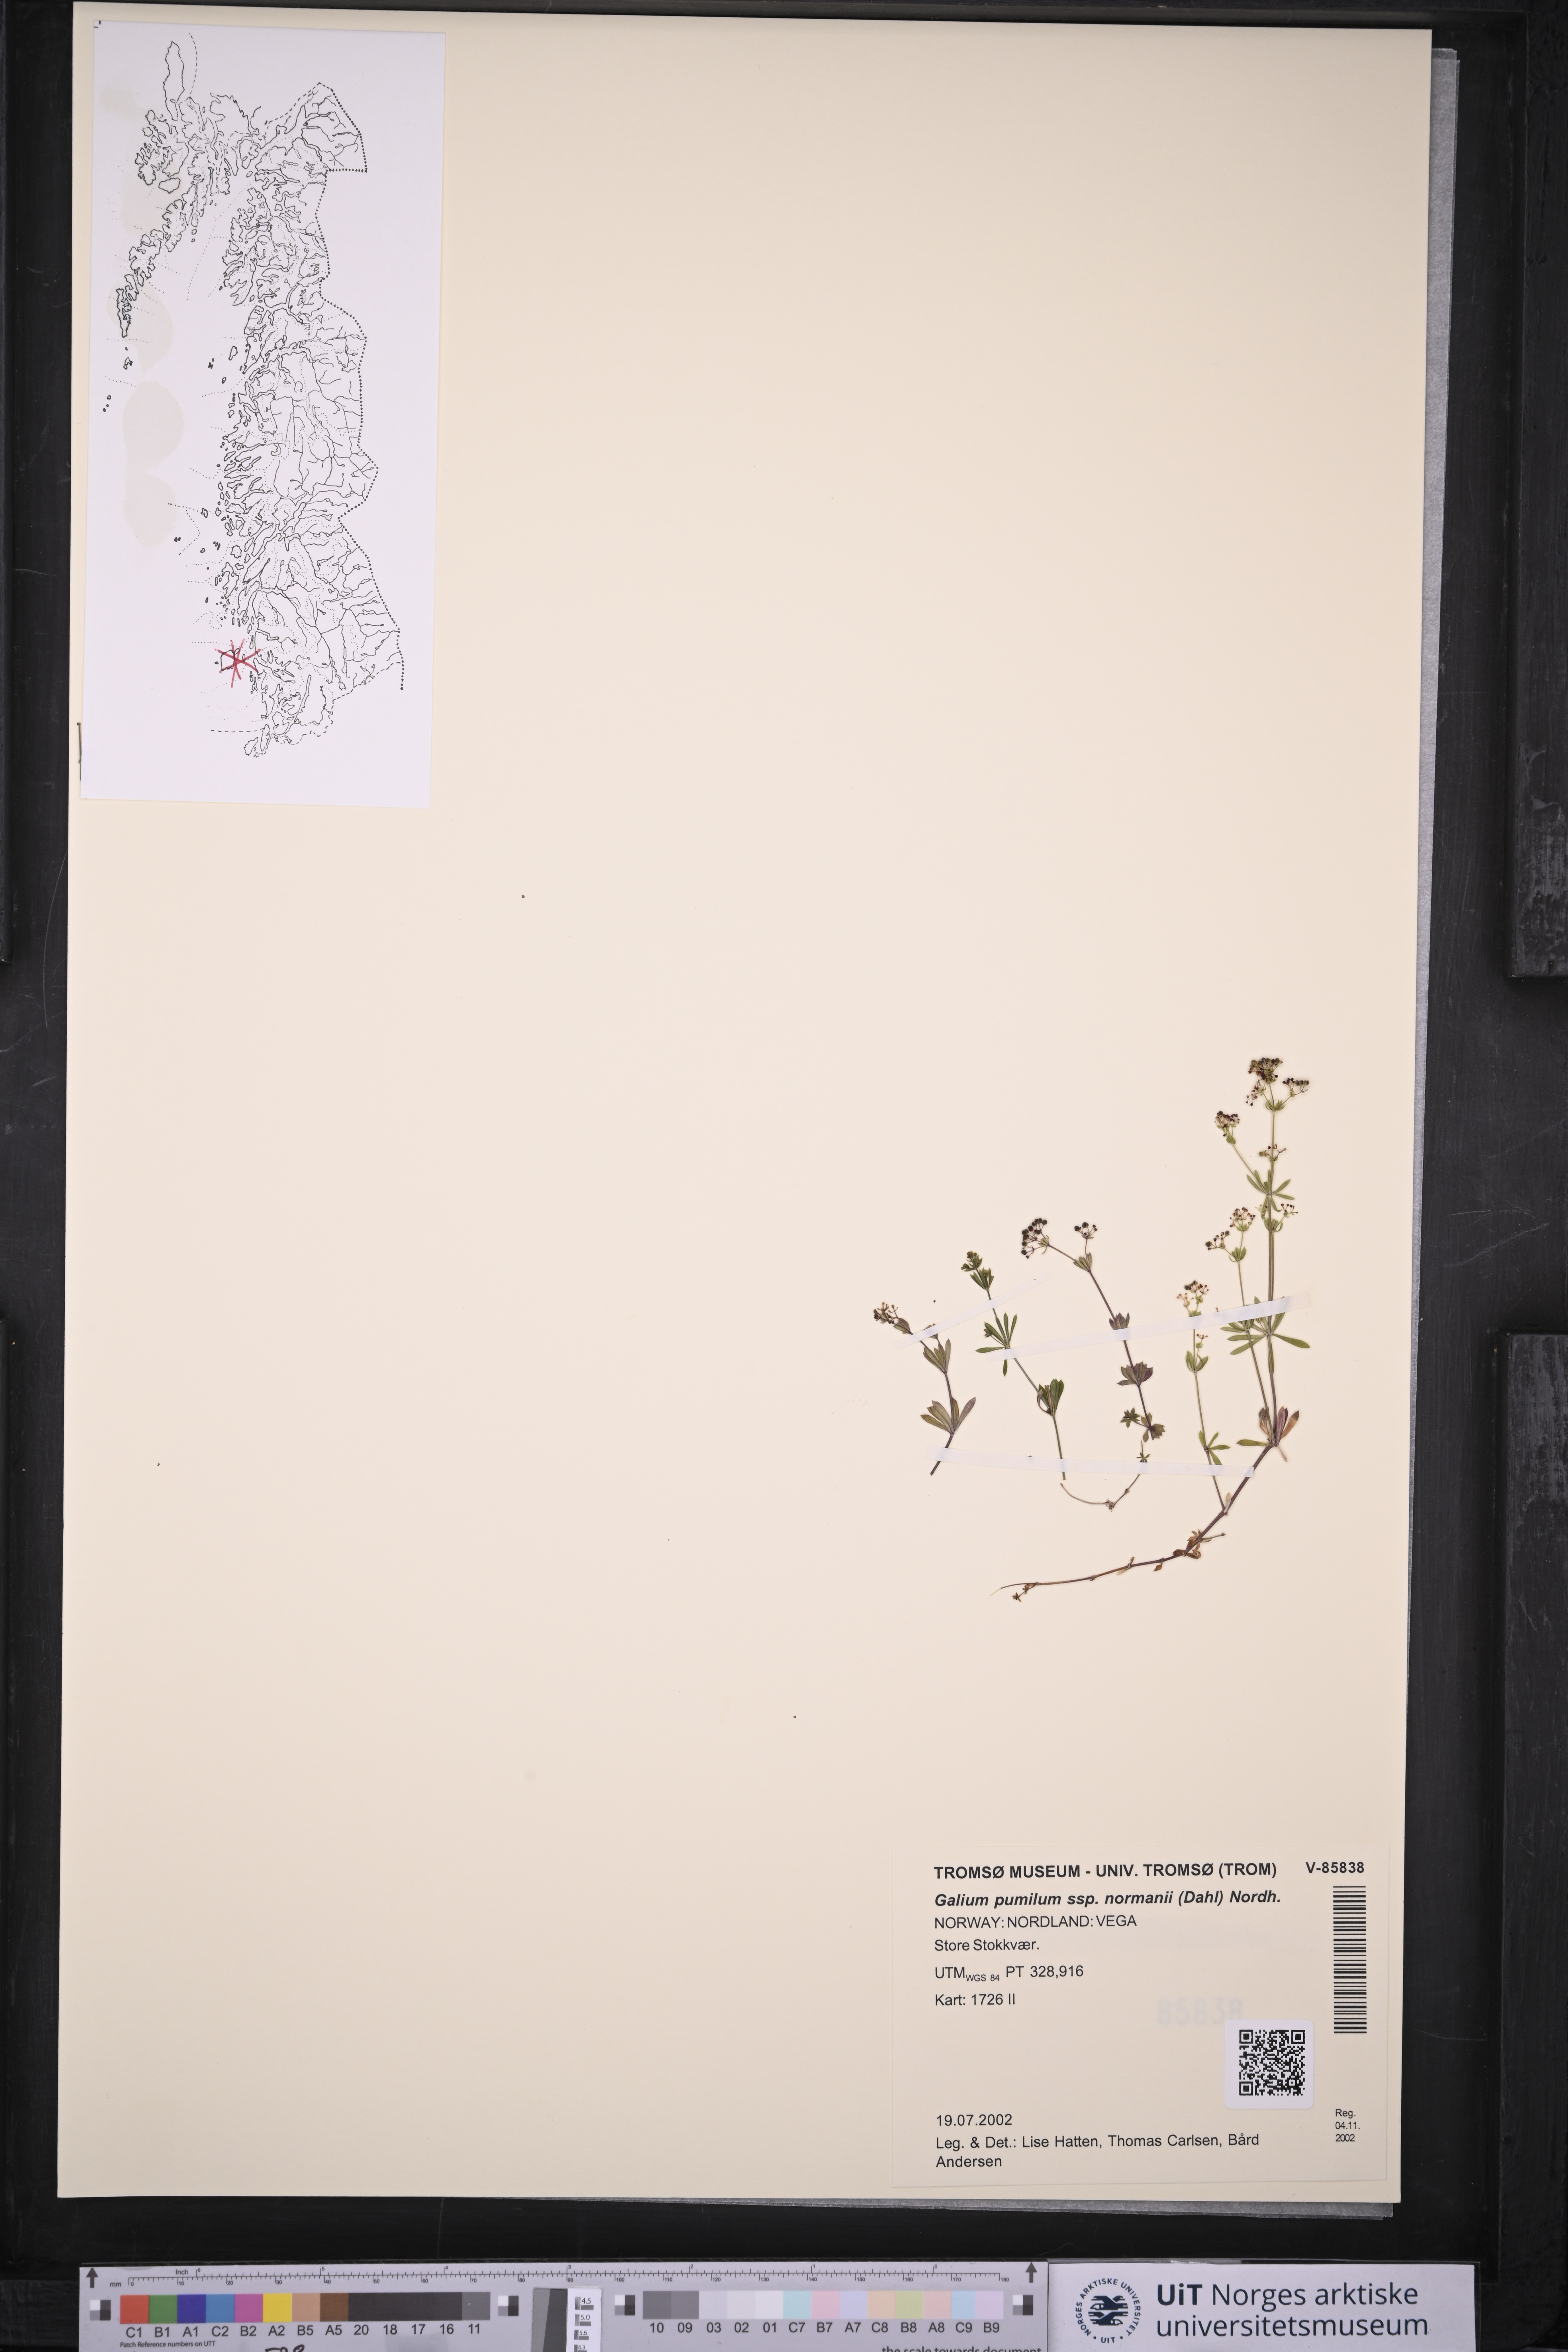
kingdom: Plantae
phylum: Tracheophyta
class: Magnoliopsida
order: Gentianales
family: Rubiaceae
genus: Galium
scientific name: Galium normanii
